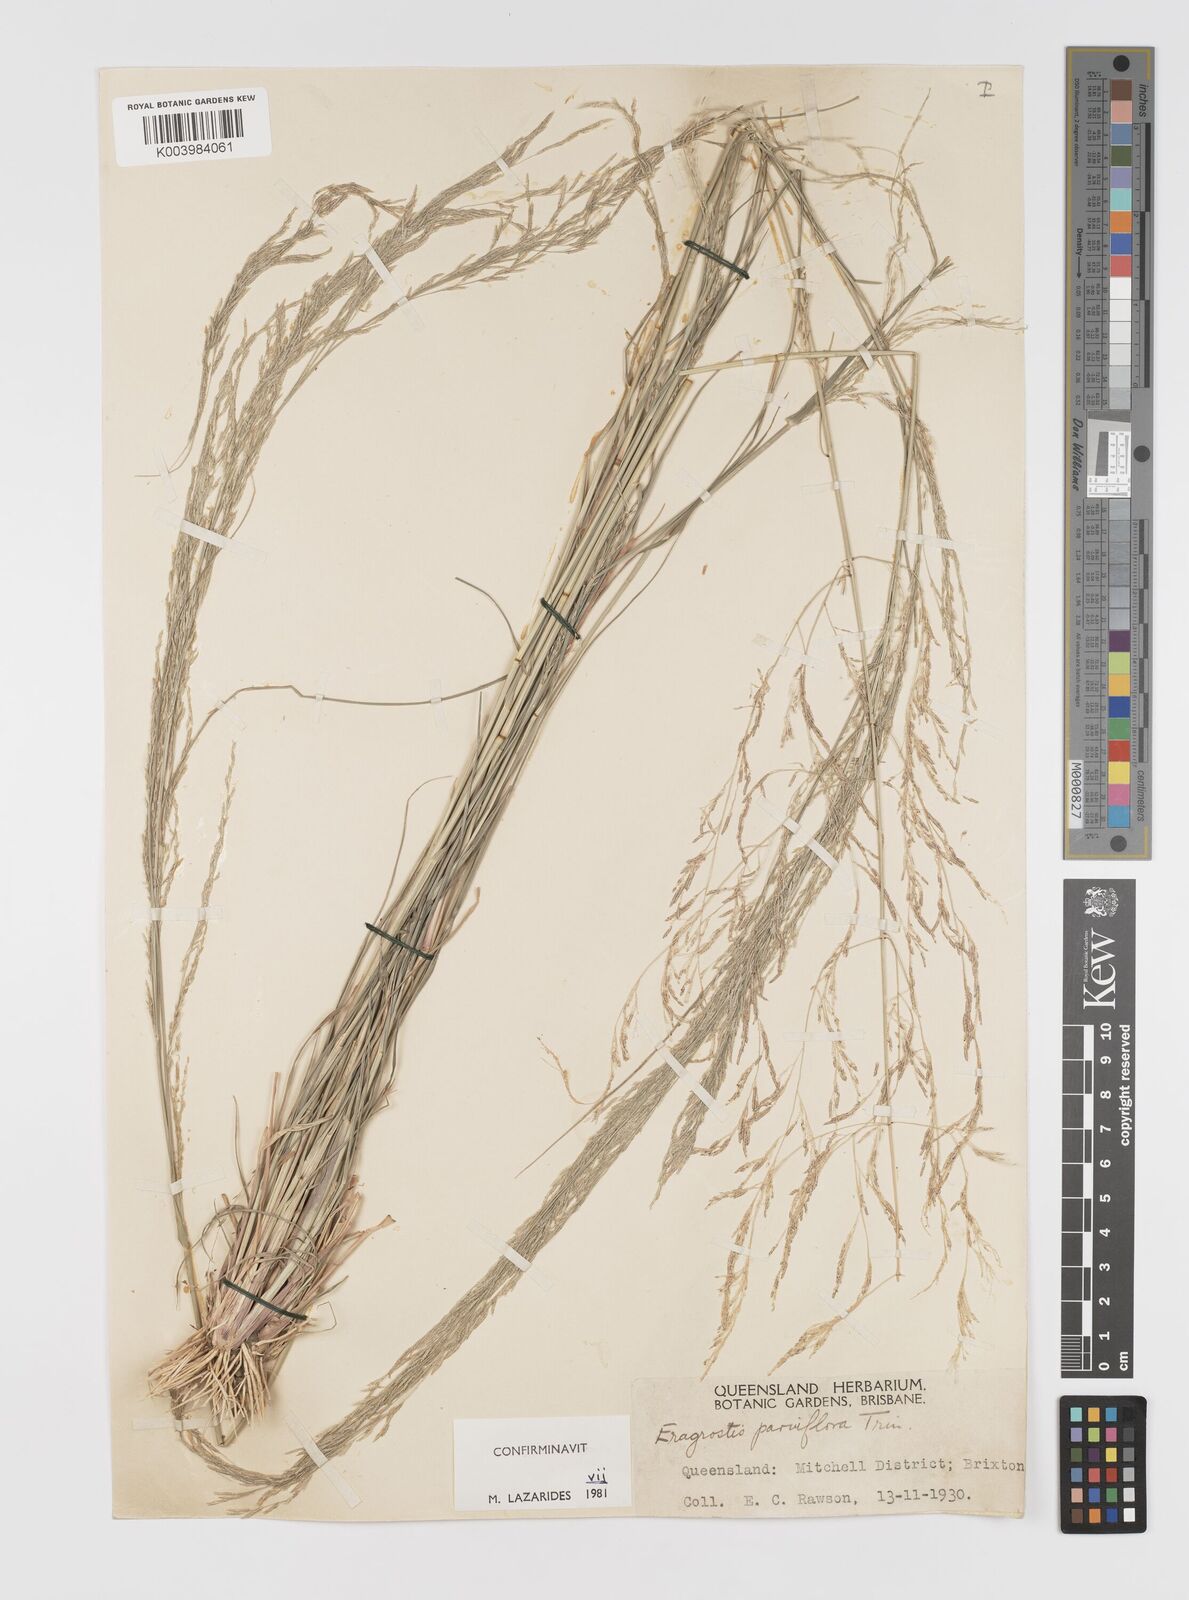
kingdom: Plantae
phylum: Tracheophyta
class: Liliopsida
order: Poales
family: Poaceae
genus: Eragrostis
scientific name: Eragrostis parviflora
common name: Weeping love-grass
